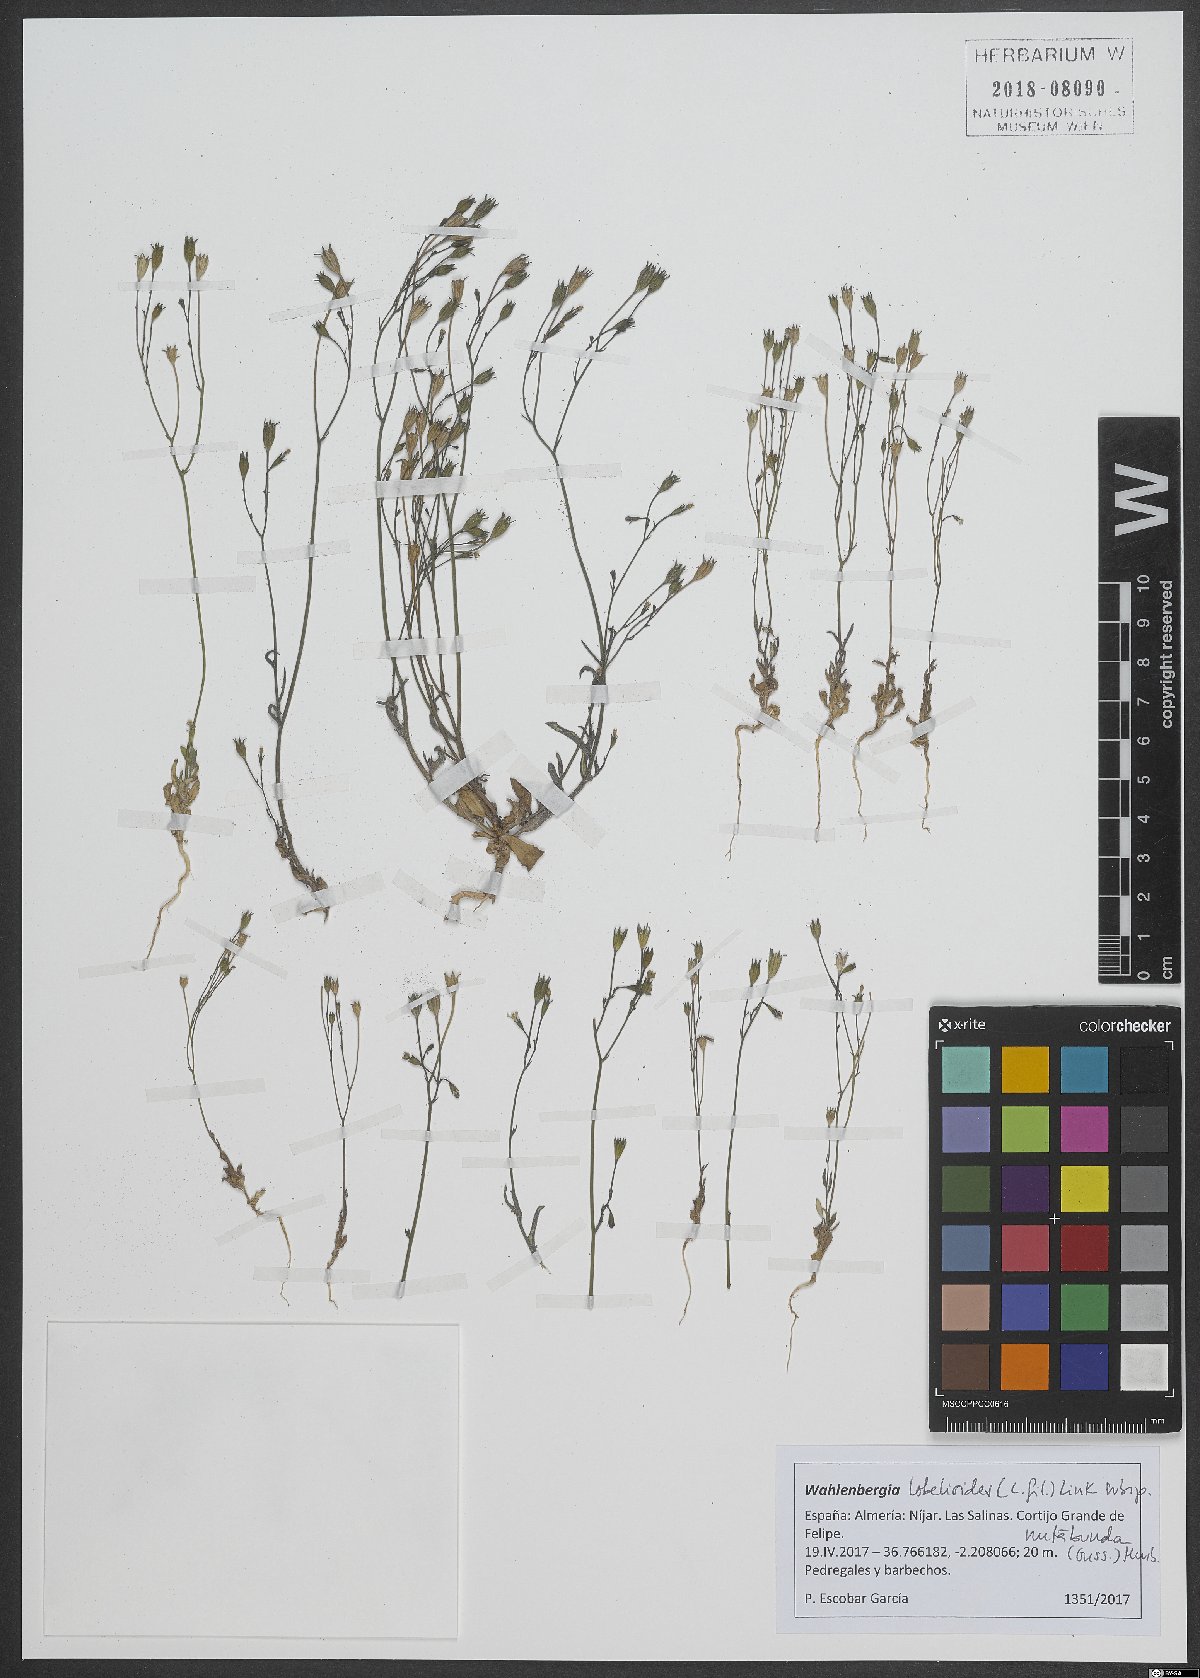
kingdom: Plantae
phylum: Tracheophyta
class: Magnoliopsida
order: Asterales
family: Campanulaceae
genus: Wahlenbergia
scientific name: Wahlenbergia lobelioides
